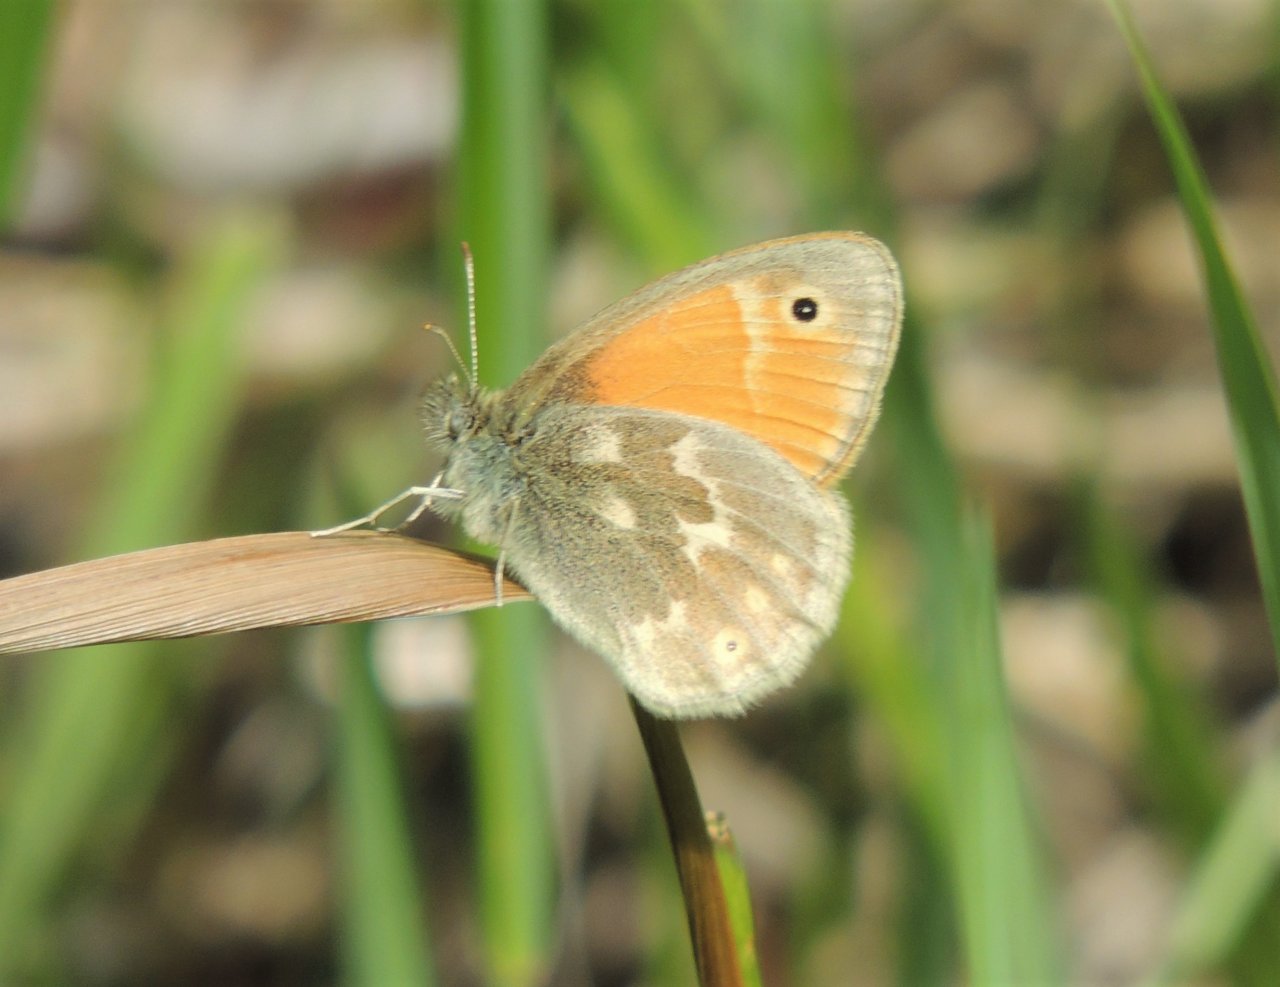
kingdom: Animalia
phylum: Arthropoda
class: Insecta
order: Lepidoptera
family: Nymphalidae
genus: Coenonympha
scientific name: Coenonympha tullia
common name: Large Heath
